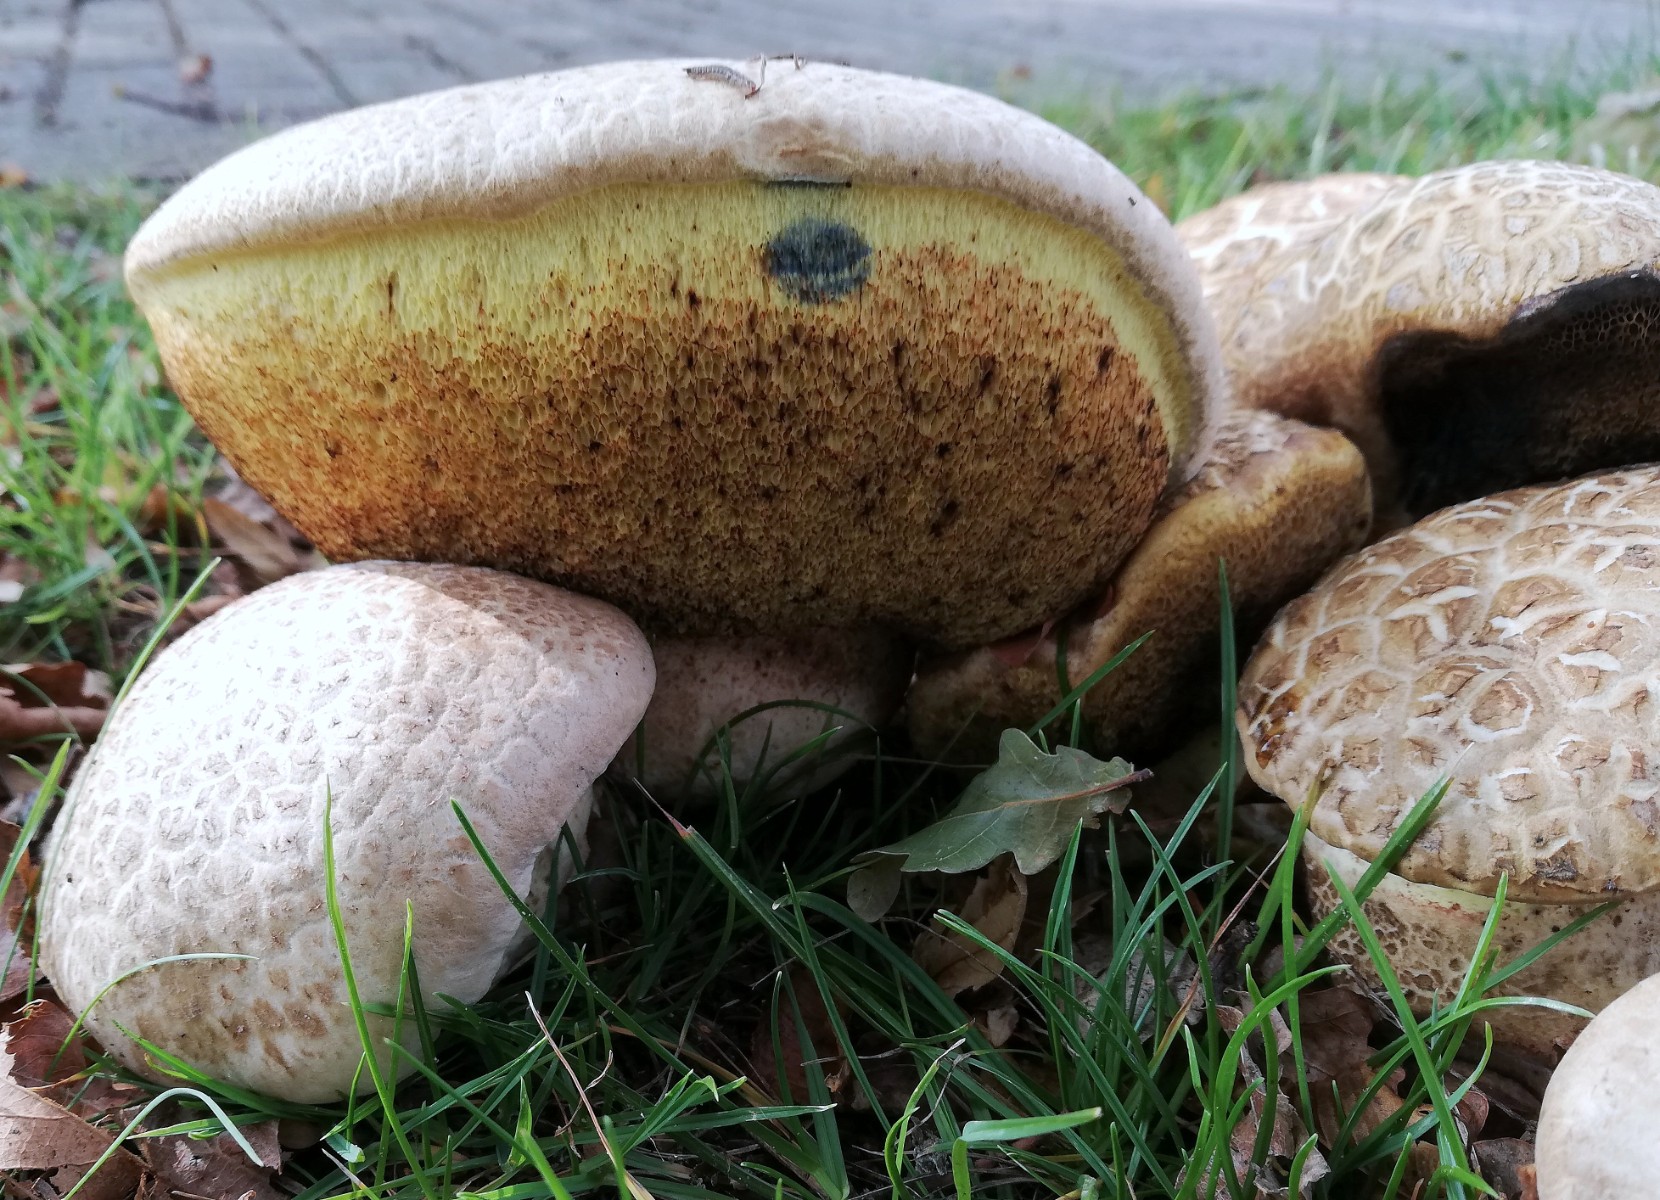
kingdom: Fungi
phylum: Basidiomycota
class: Agaricomycetes
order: Boletales
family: Boletaceae
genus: Caloboletus
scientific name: Caloboletus radicans
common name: rod-rørhat
